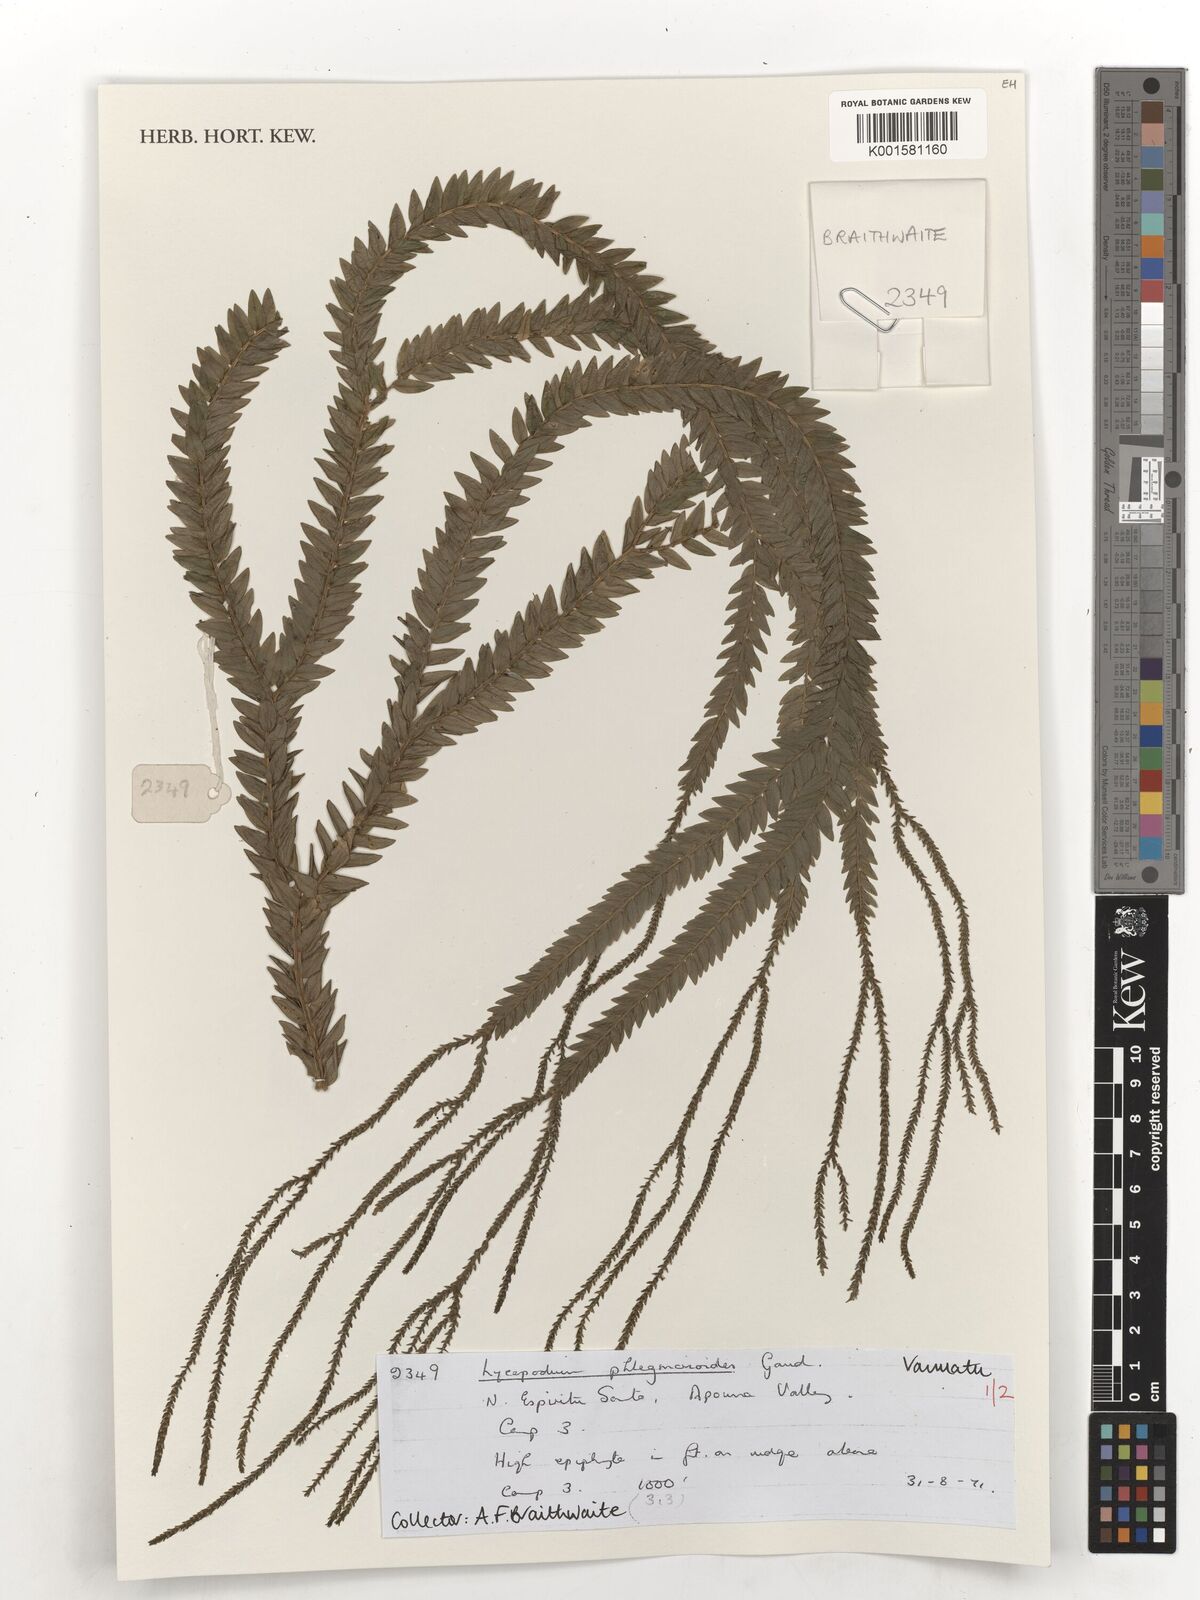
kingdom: Plantae
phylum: Tracheophyta
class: Lycopodiopsida
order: Lycopodiales
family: Lycopodiaceae
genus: Phlegmariurus
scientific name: Phlegmariurus phlegmarioides
